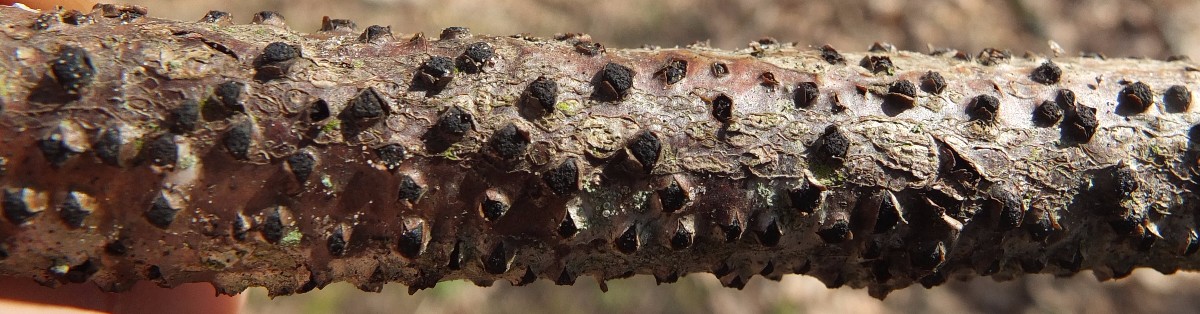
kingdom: Fungi
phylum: Ascomycota
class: Sordariomycetes
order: Xylariales
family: Diatrypaceae
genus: Diatrypella
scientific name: Diatrypella quercina
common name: ege-kulskorpe
